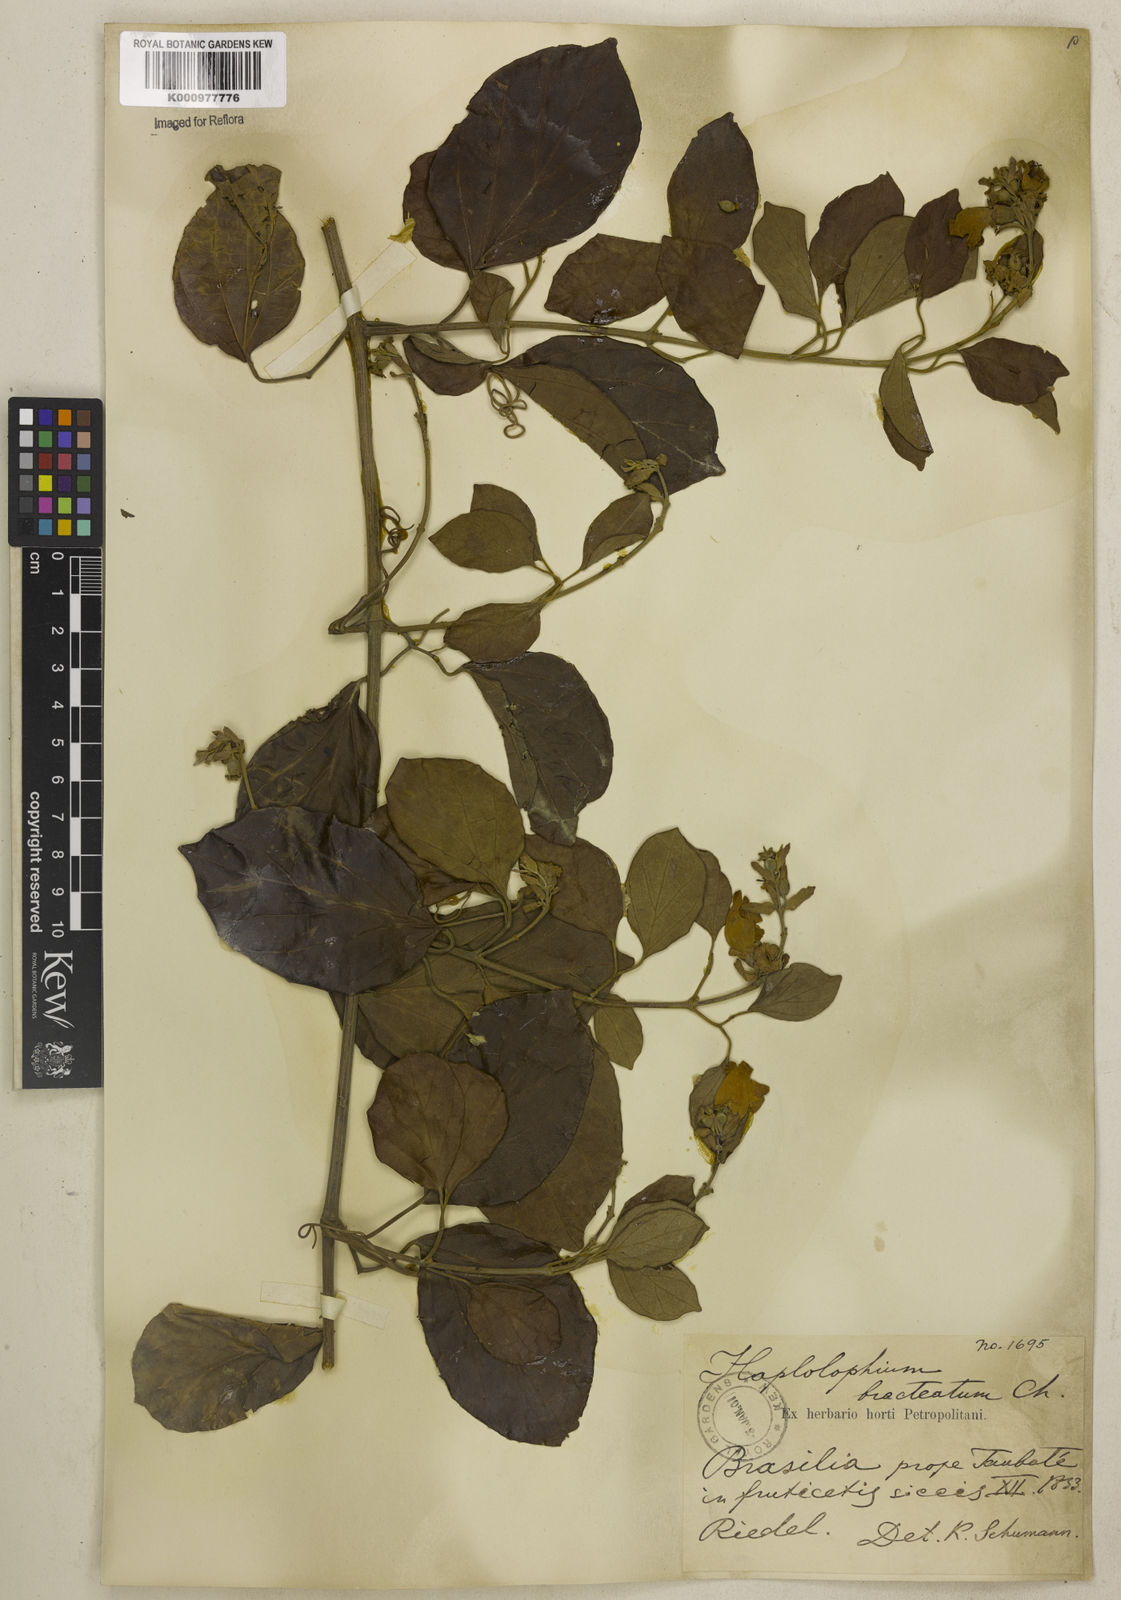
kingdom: Plantae
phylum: Tracheophyta
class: Magnoliopsida
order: Lamiales
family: Bignoniaceae
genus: Amphilophium
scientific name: Amphilophium bracteatum
